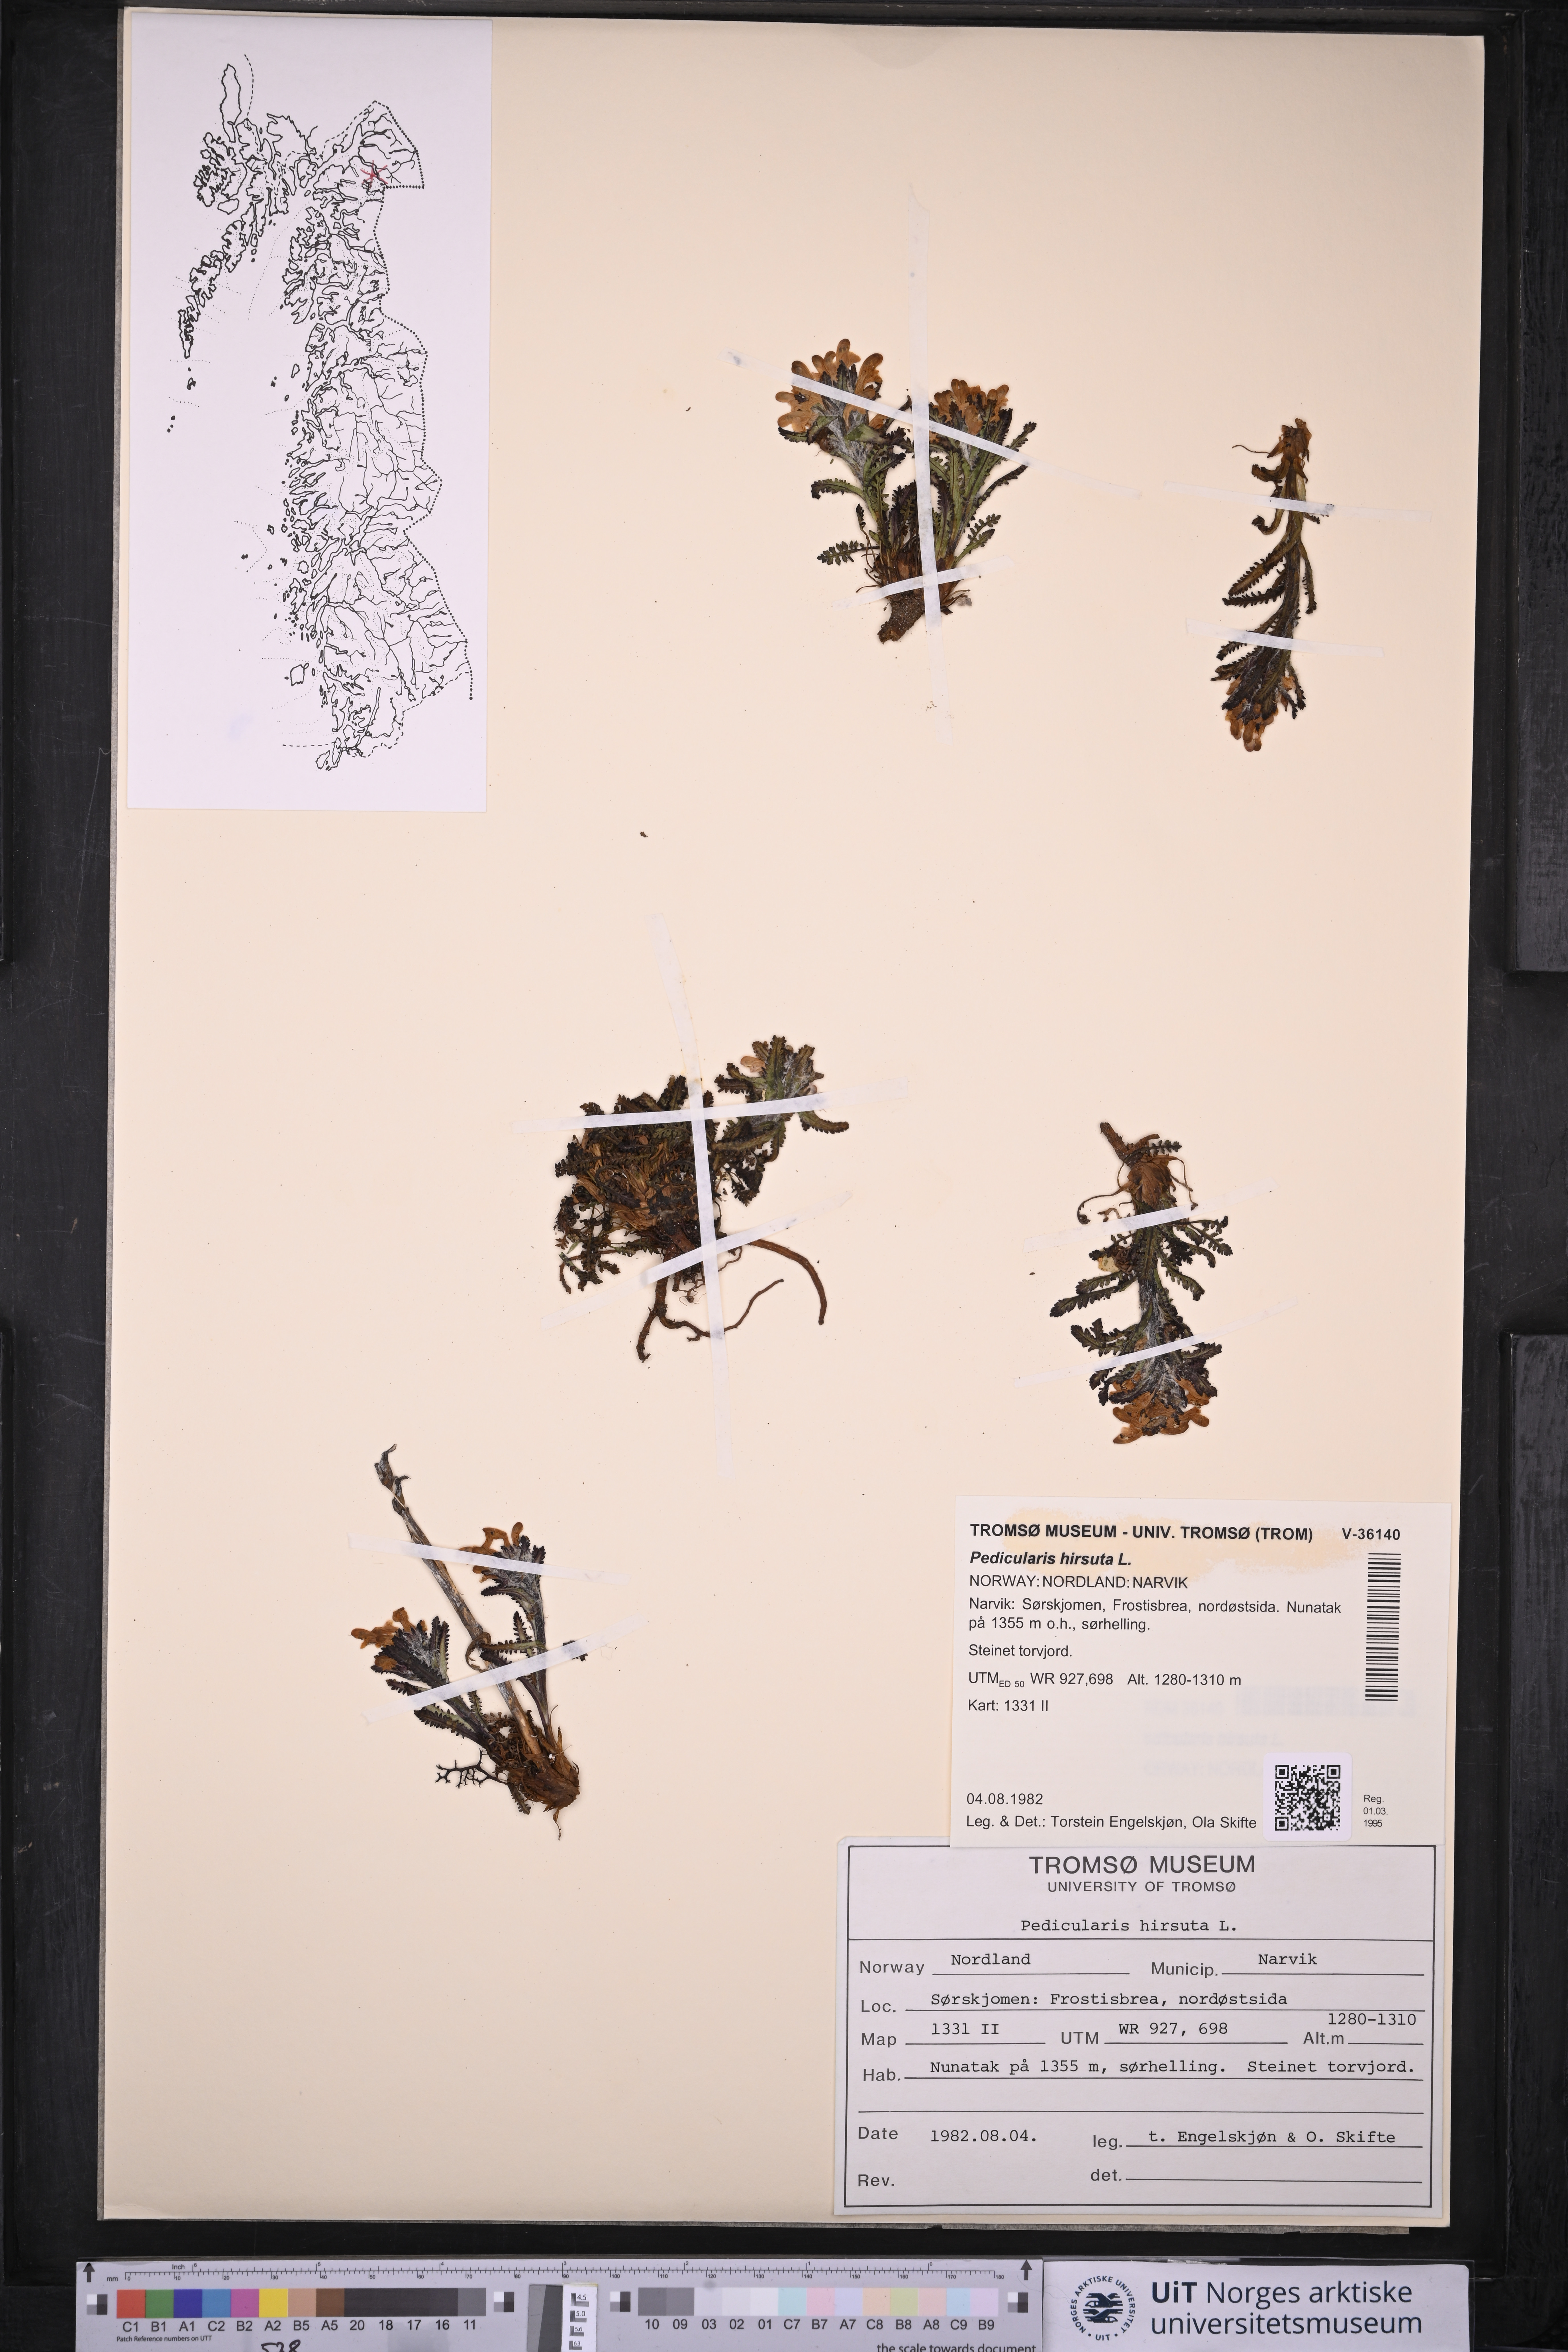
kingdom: Plantae
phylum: Tracheophyta
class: Magnoliopsida
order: Lamiales
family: Orobanchaceae
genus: Pedicularis
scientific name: Pedicularis hirsuta
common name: Hairy lousewort
